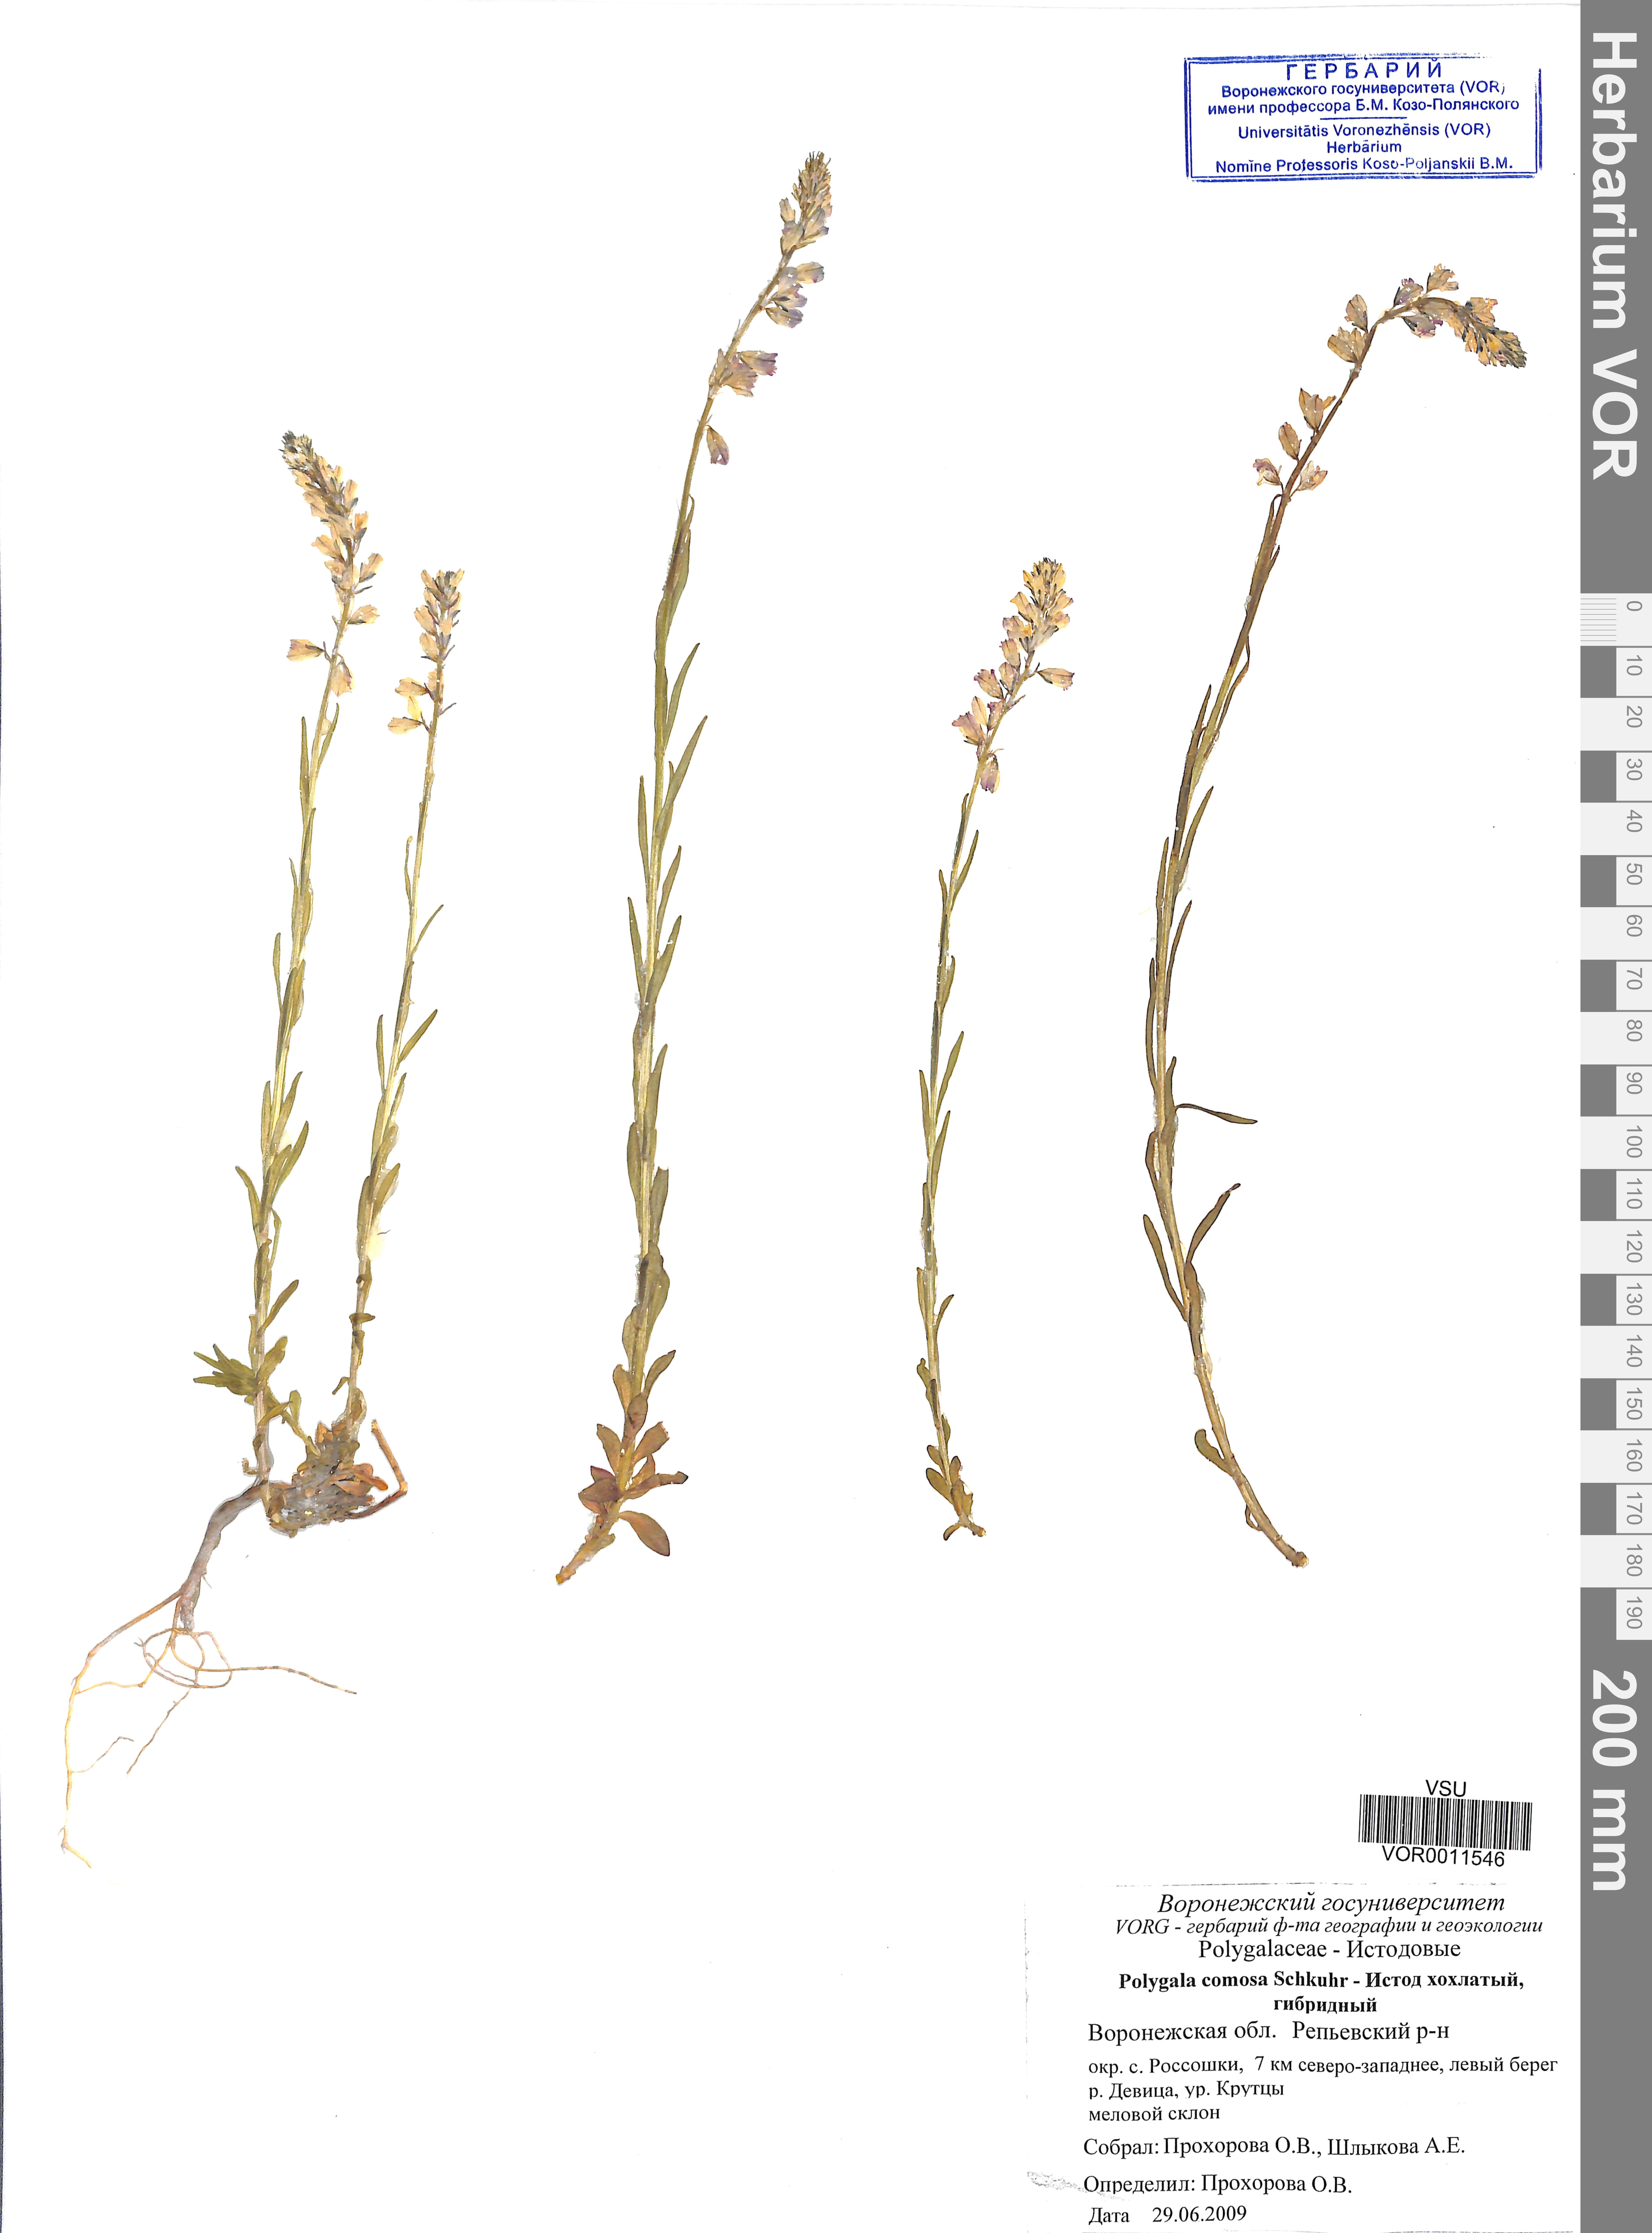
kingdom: Plantae
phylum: Tracheophyta
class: Magnoliopsida
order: Fabales
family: Polygalaceae
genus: Polygala
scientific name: Polygala comosa
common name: Tufted milkwort
